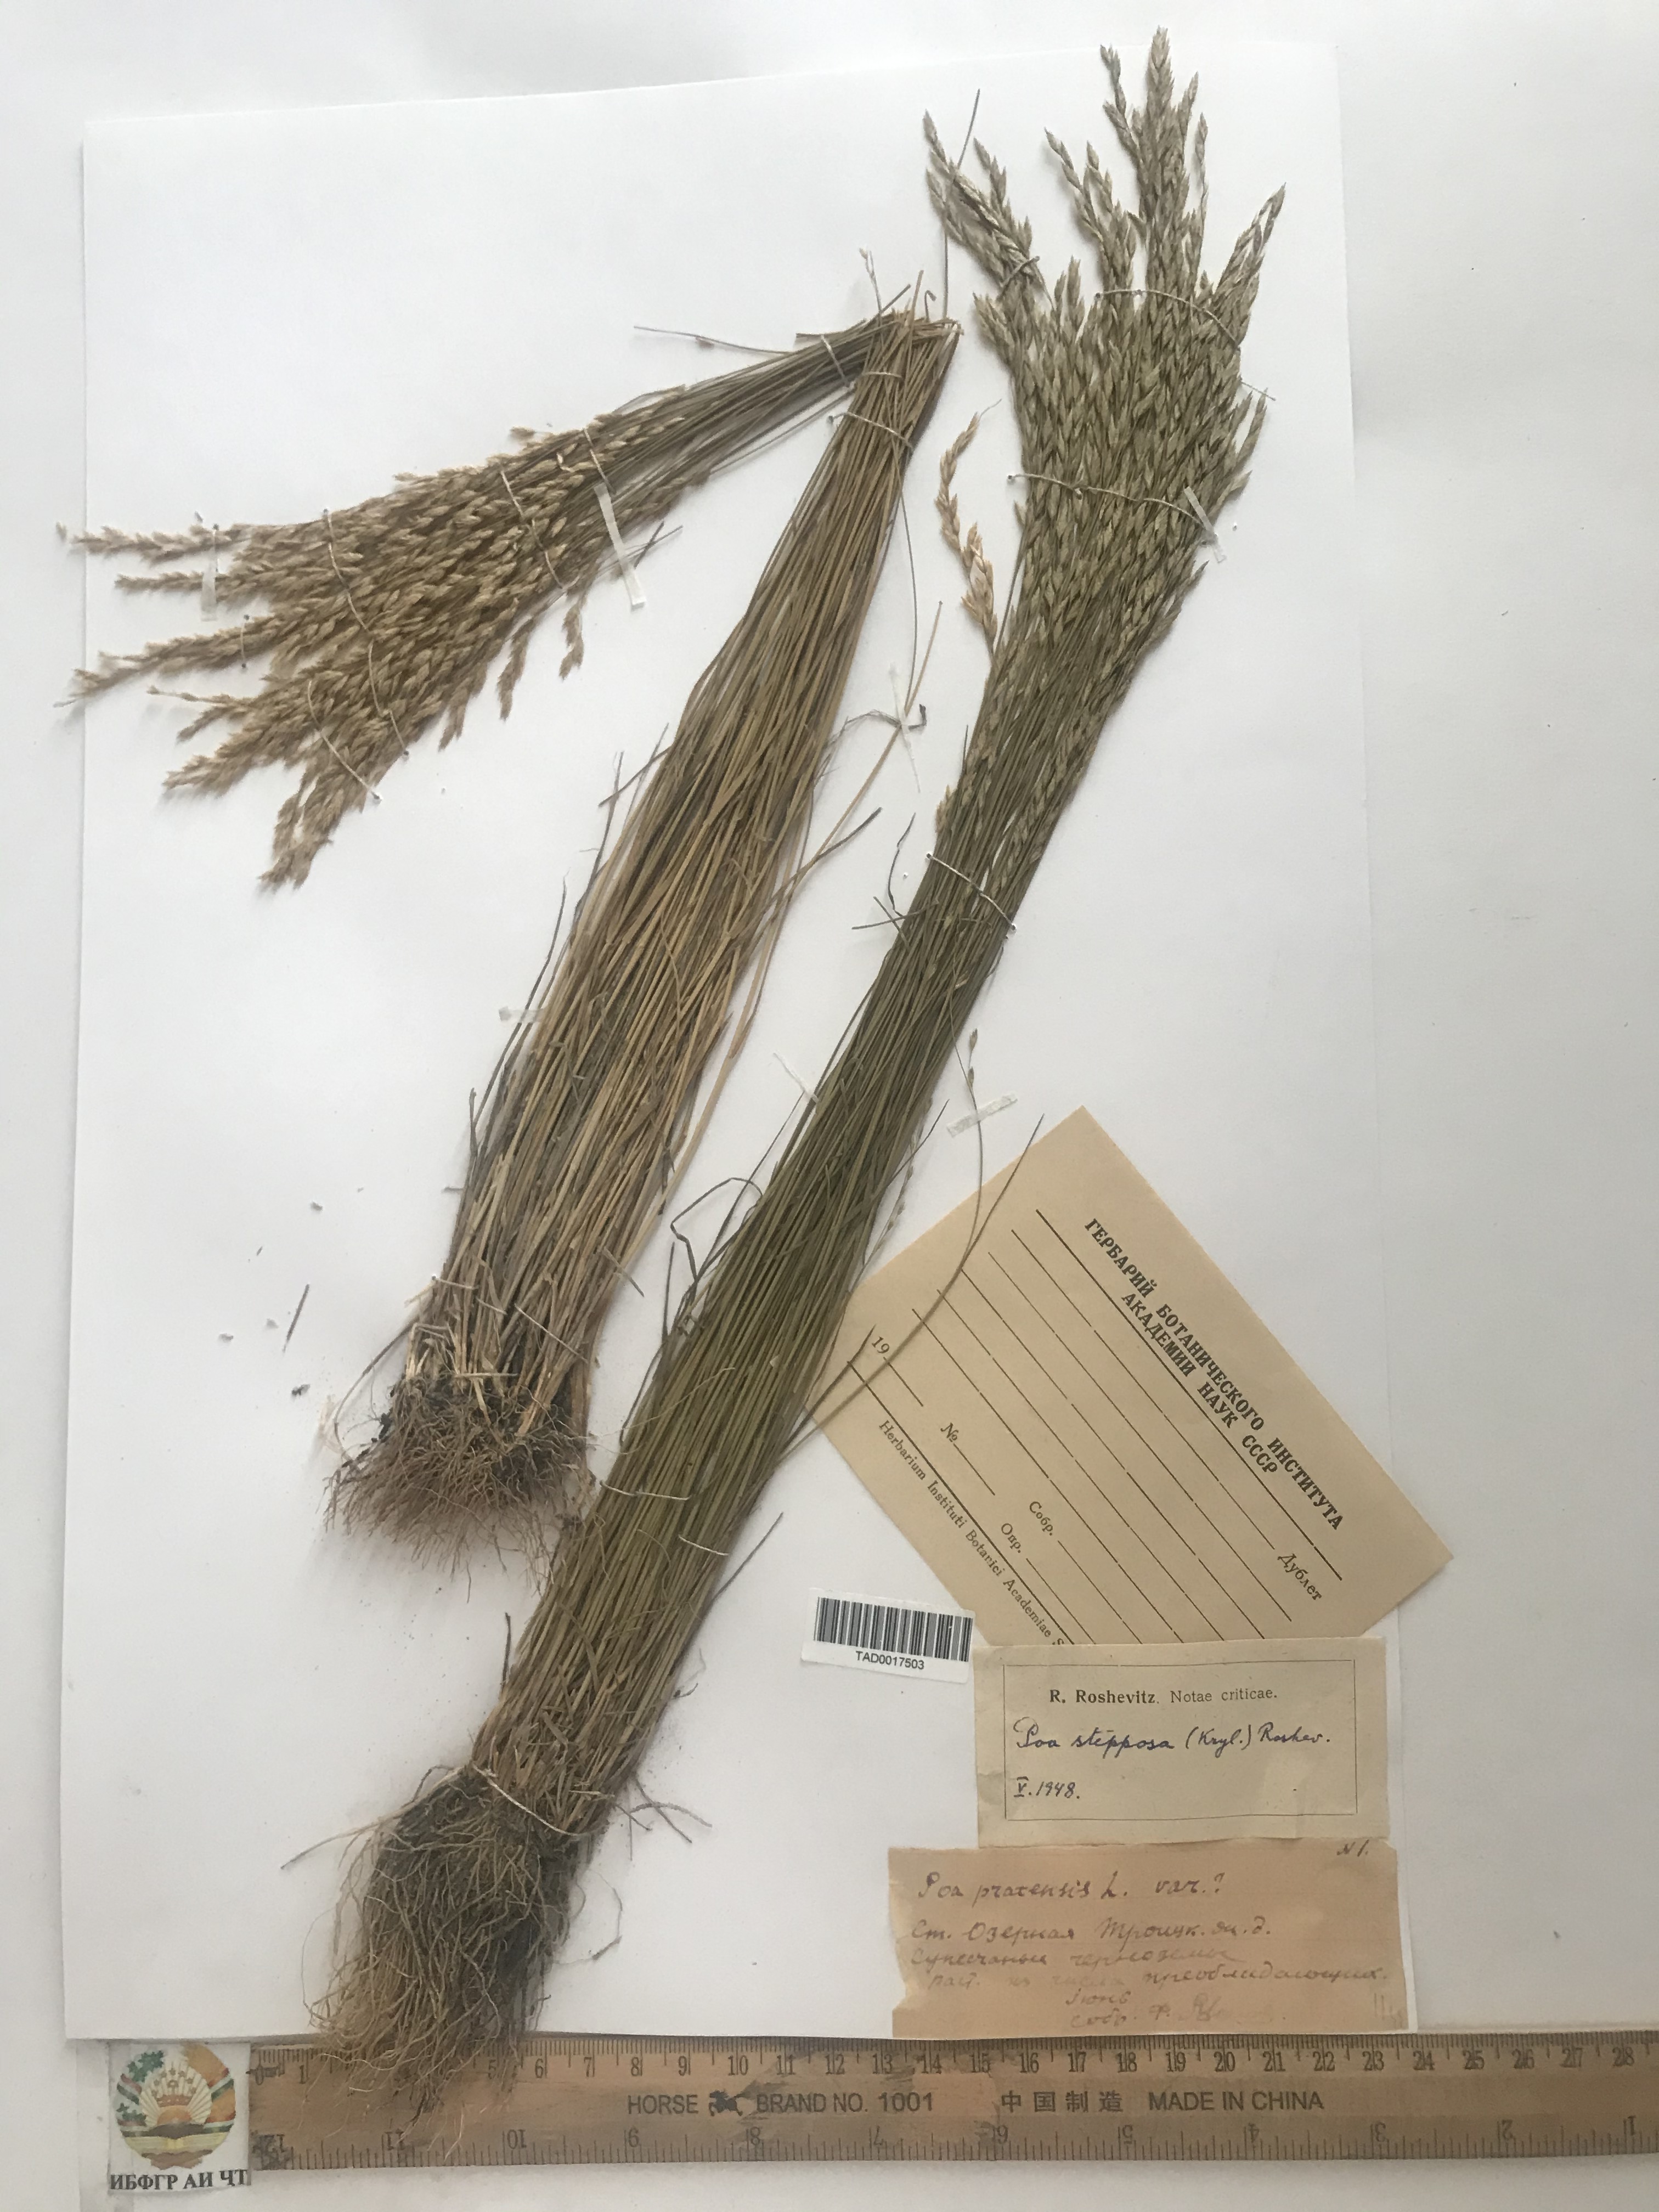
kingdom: Plantae
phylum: Tracheophyta
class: Liliopsida
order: Poales
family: Poaceae
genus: Poa
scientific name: Poa
